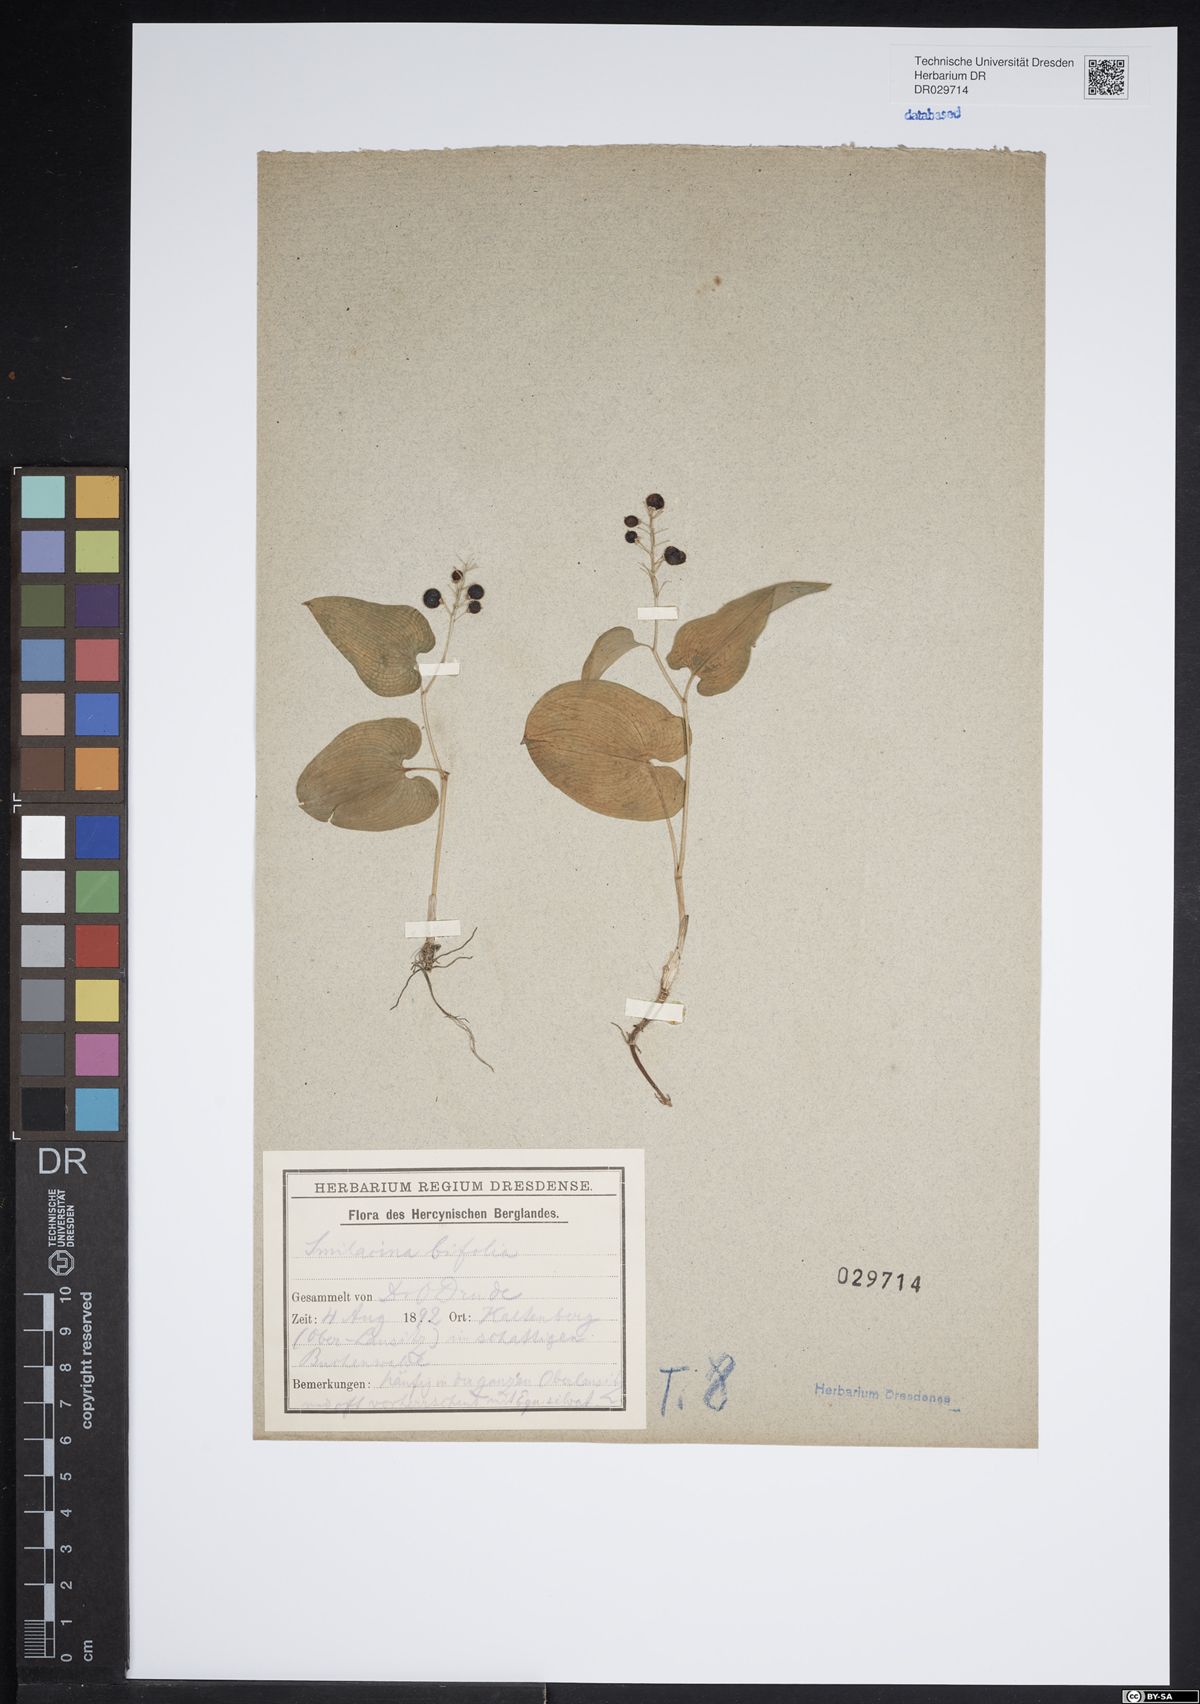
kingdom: Plantae
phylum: Tracheophyta
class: Liliopsida
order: Asparagales
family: Asparagaceae
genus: Maianthemum
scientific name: Maianthemum bifolium
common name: May lily
